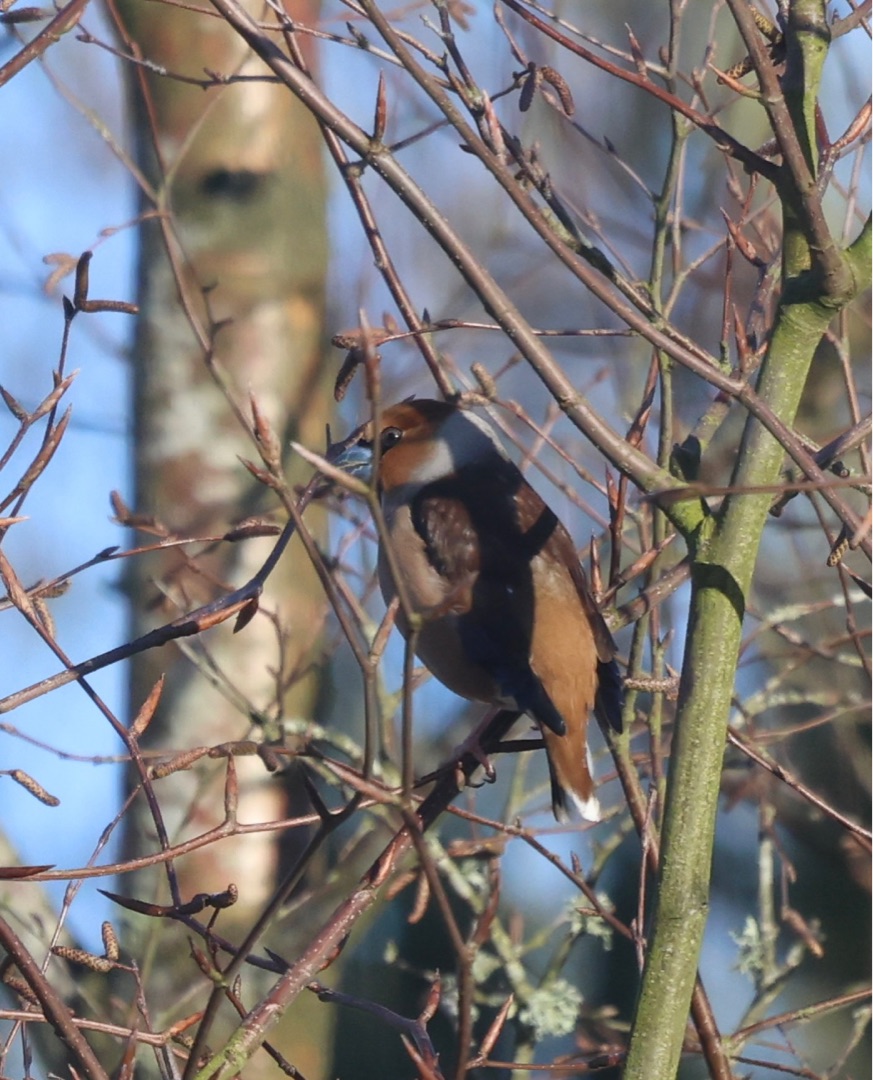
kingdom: Animalia
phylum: Chordata
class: Aves
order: Passeriformes
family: Fringillidae
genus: Coccothraustes
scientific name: Coccothraustes coccothraustes
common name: Kernebider
